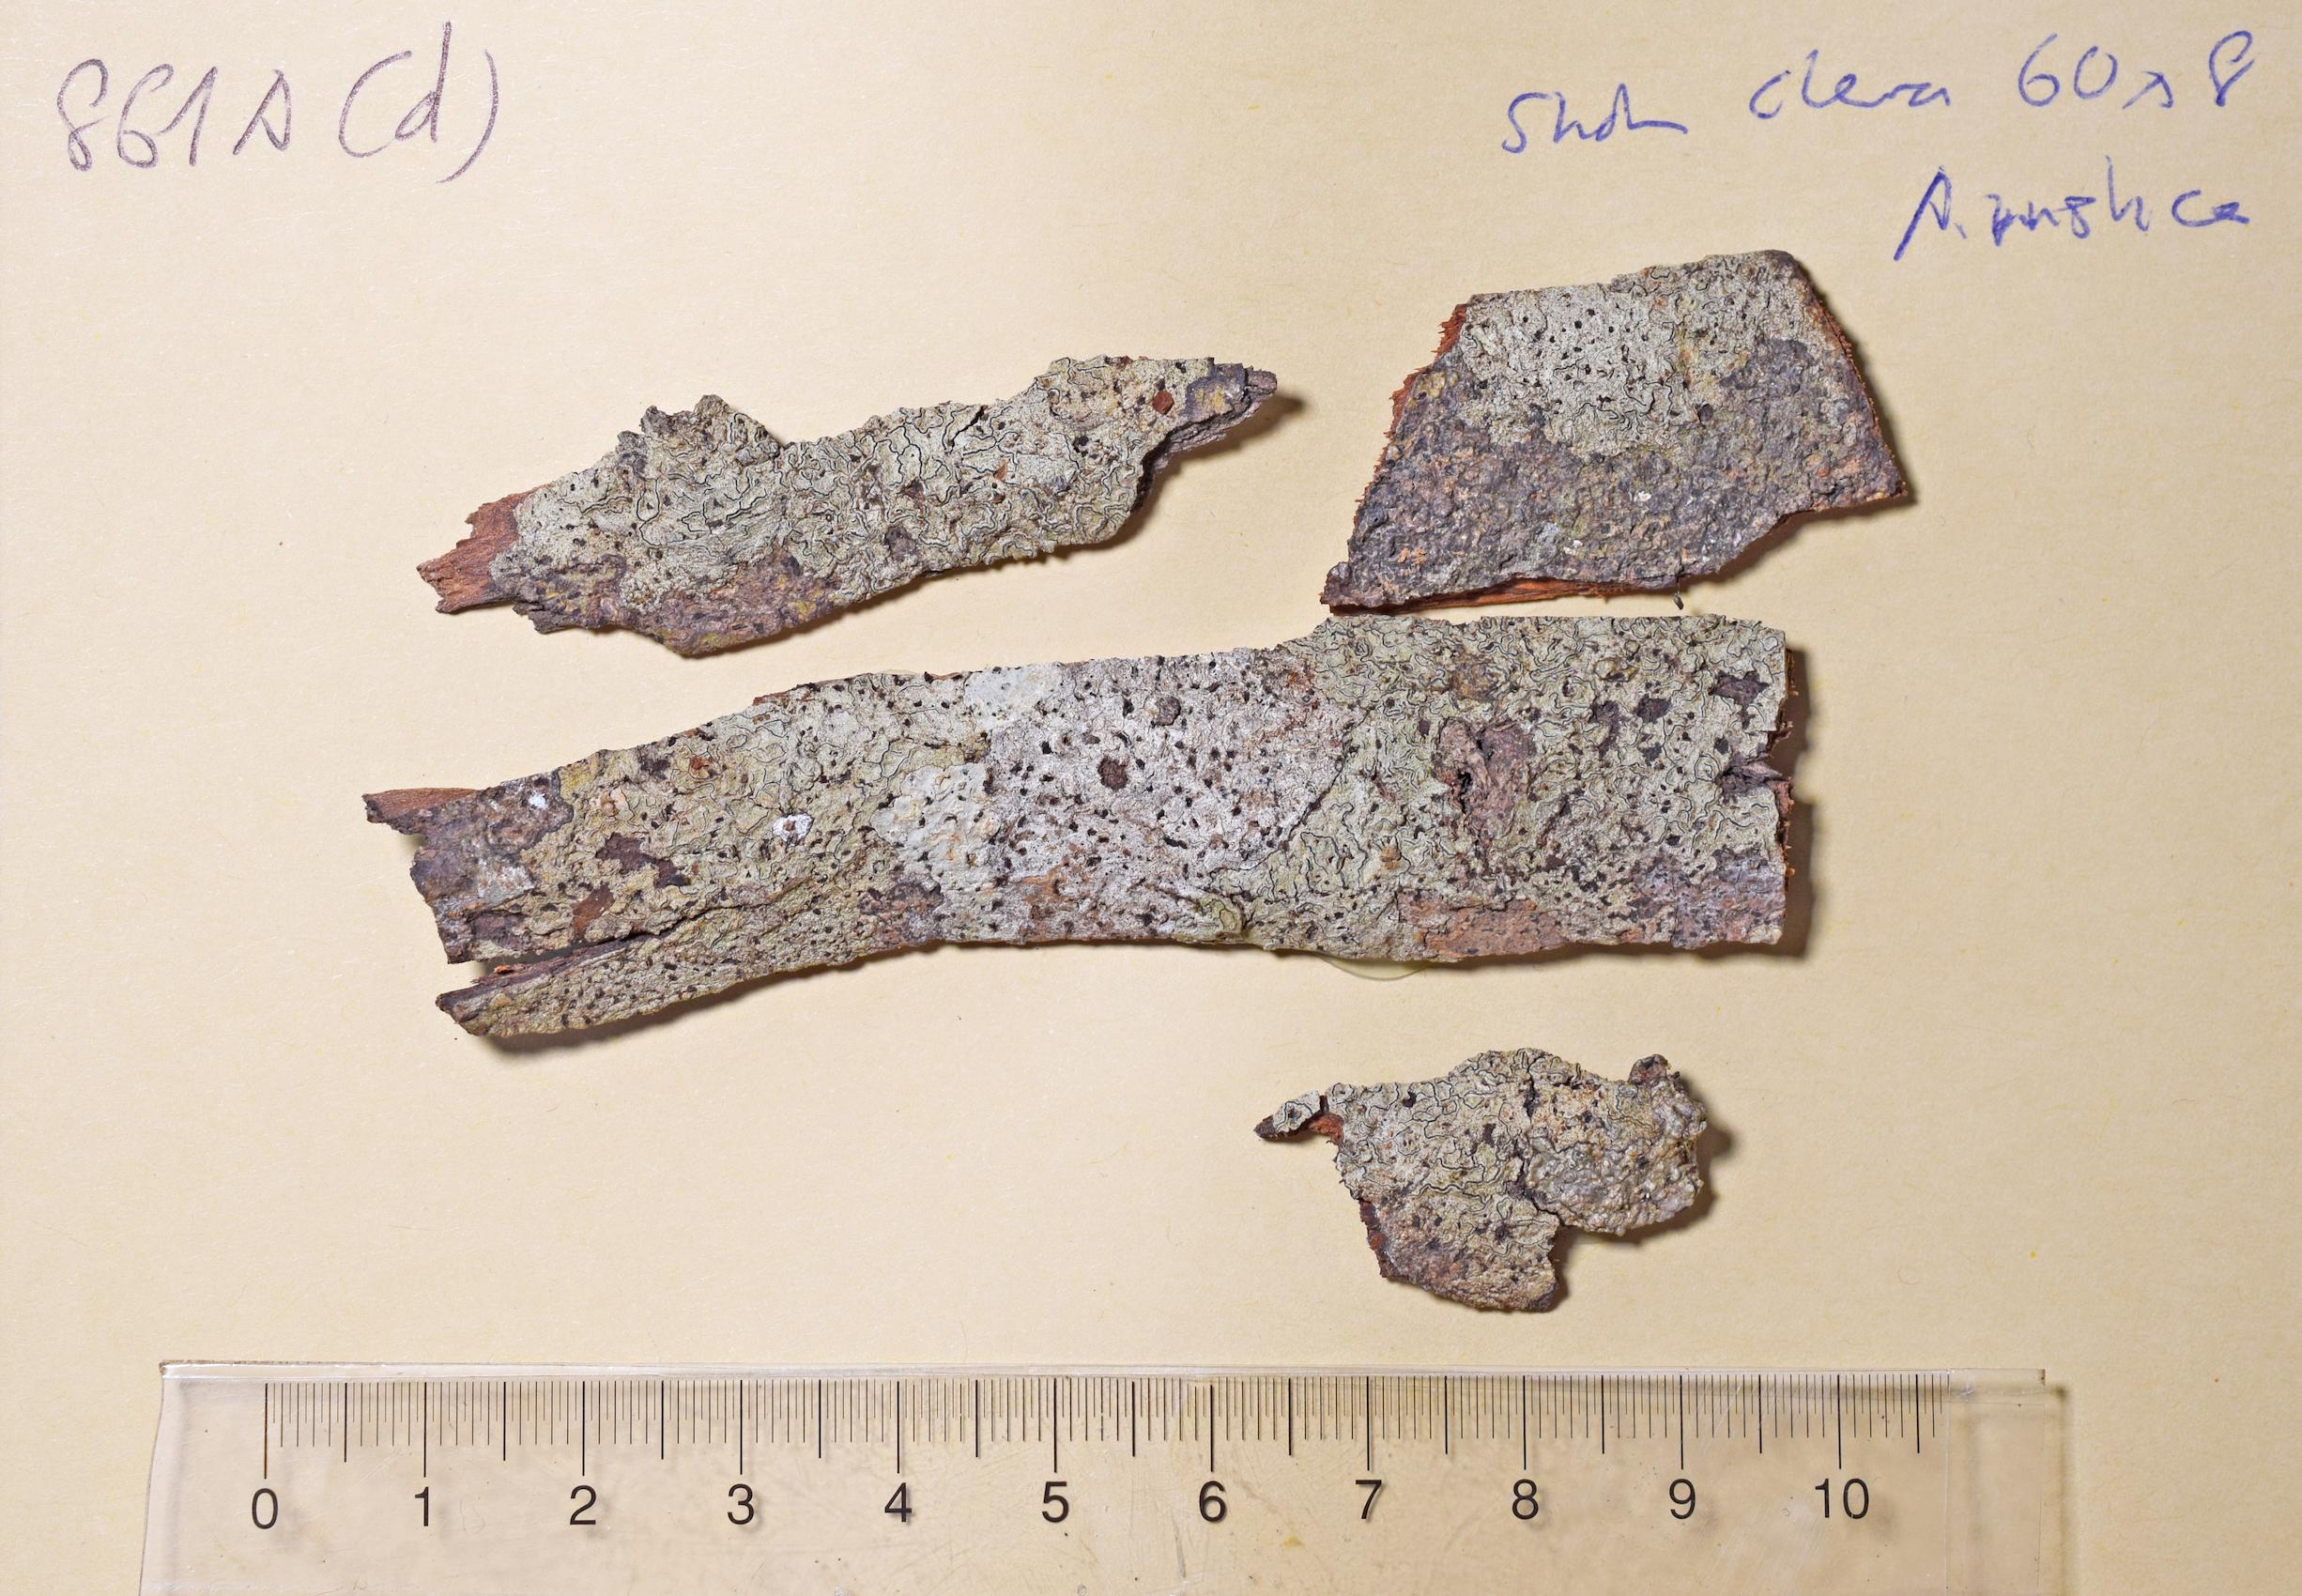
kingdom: Fungi
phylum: Ascomycota
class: Lecanoromycetes
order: Ostropales
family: Graphidaceae
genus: Graphis
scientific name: Graphis
